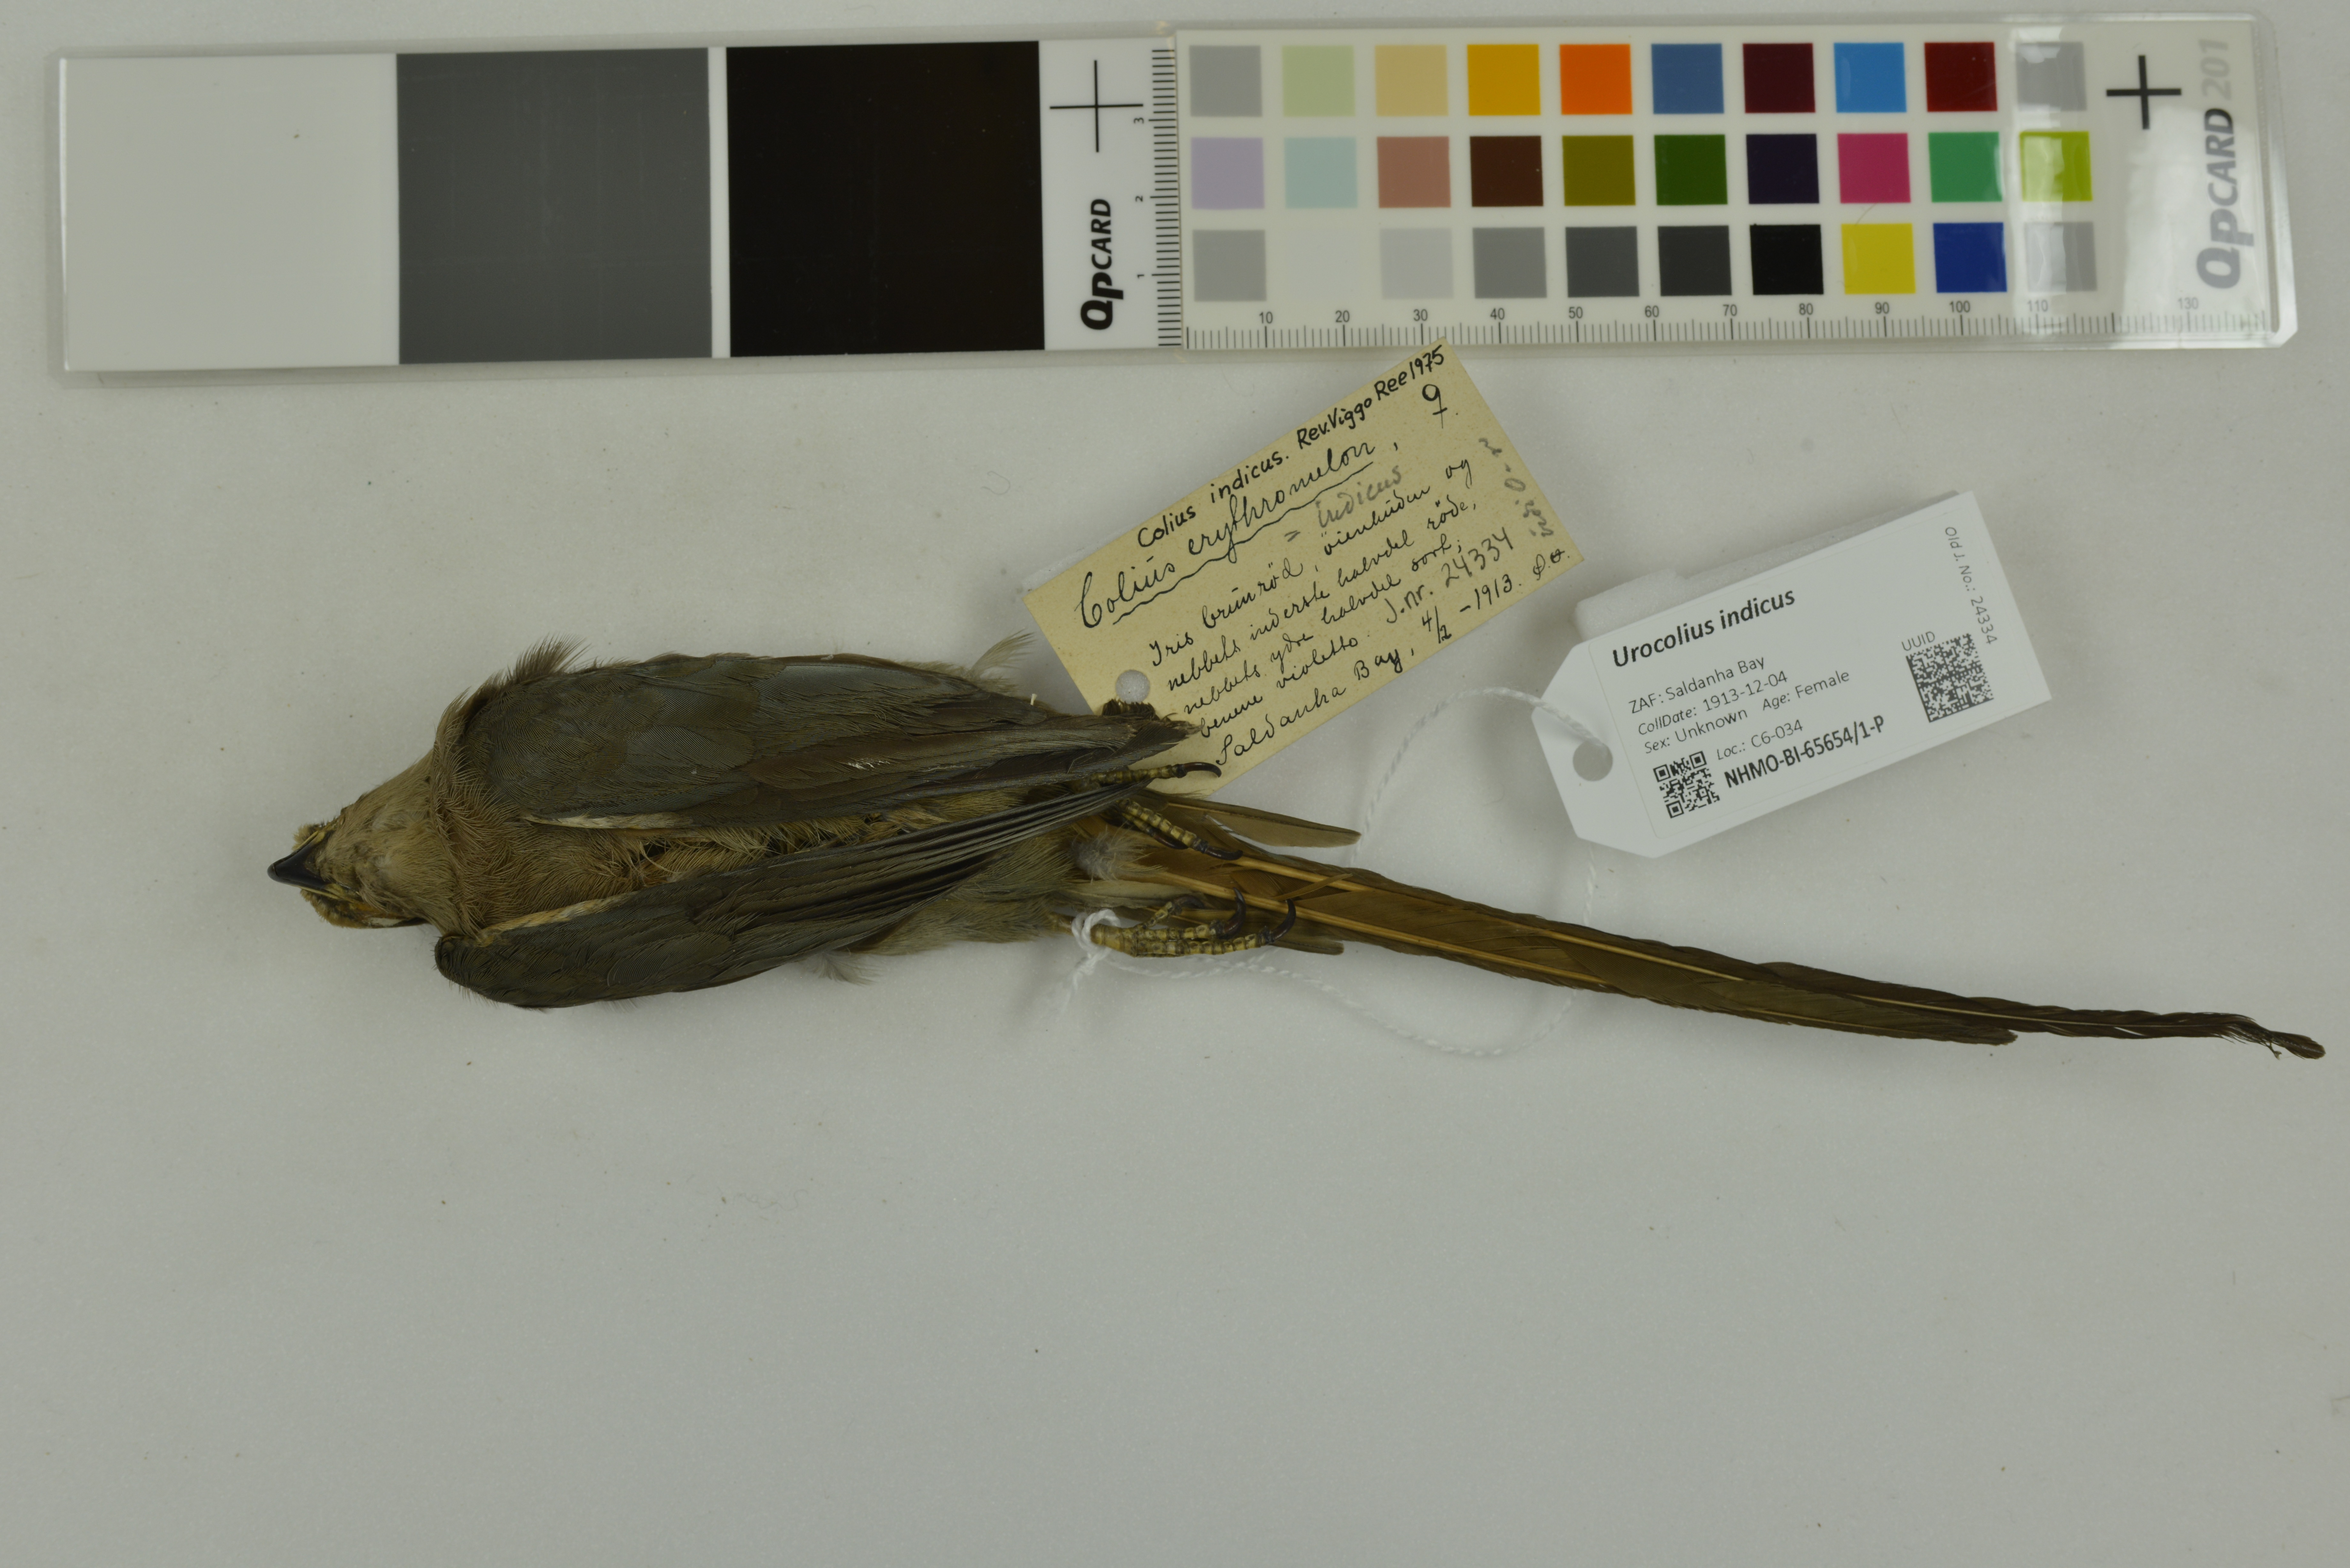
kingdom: Animalia
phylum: Chordata
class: Aves
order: Coliiformes
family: Coliidae
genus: Urocolius
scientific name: Urocolius indicus
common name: Red-faced mousebird
